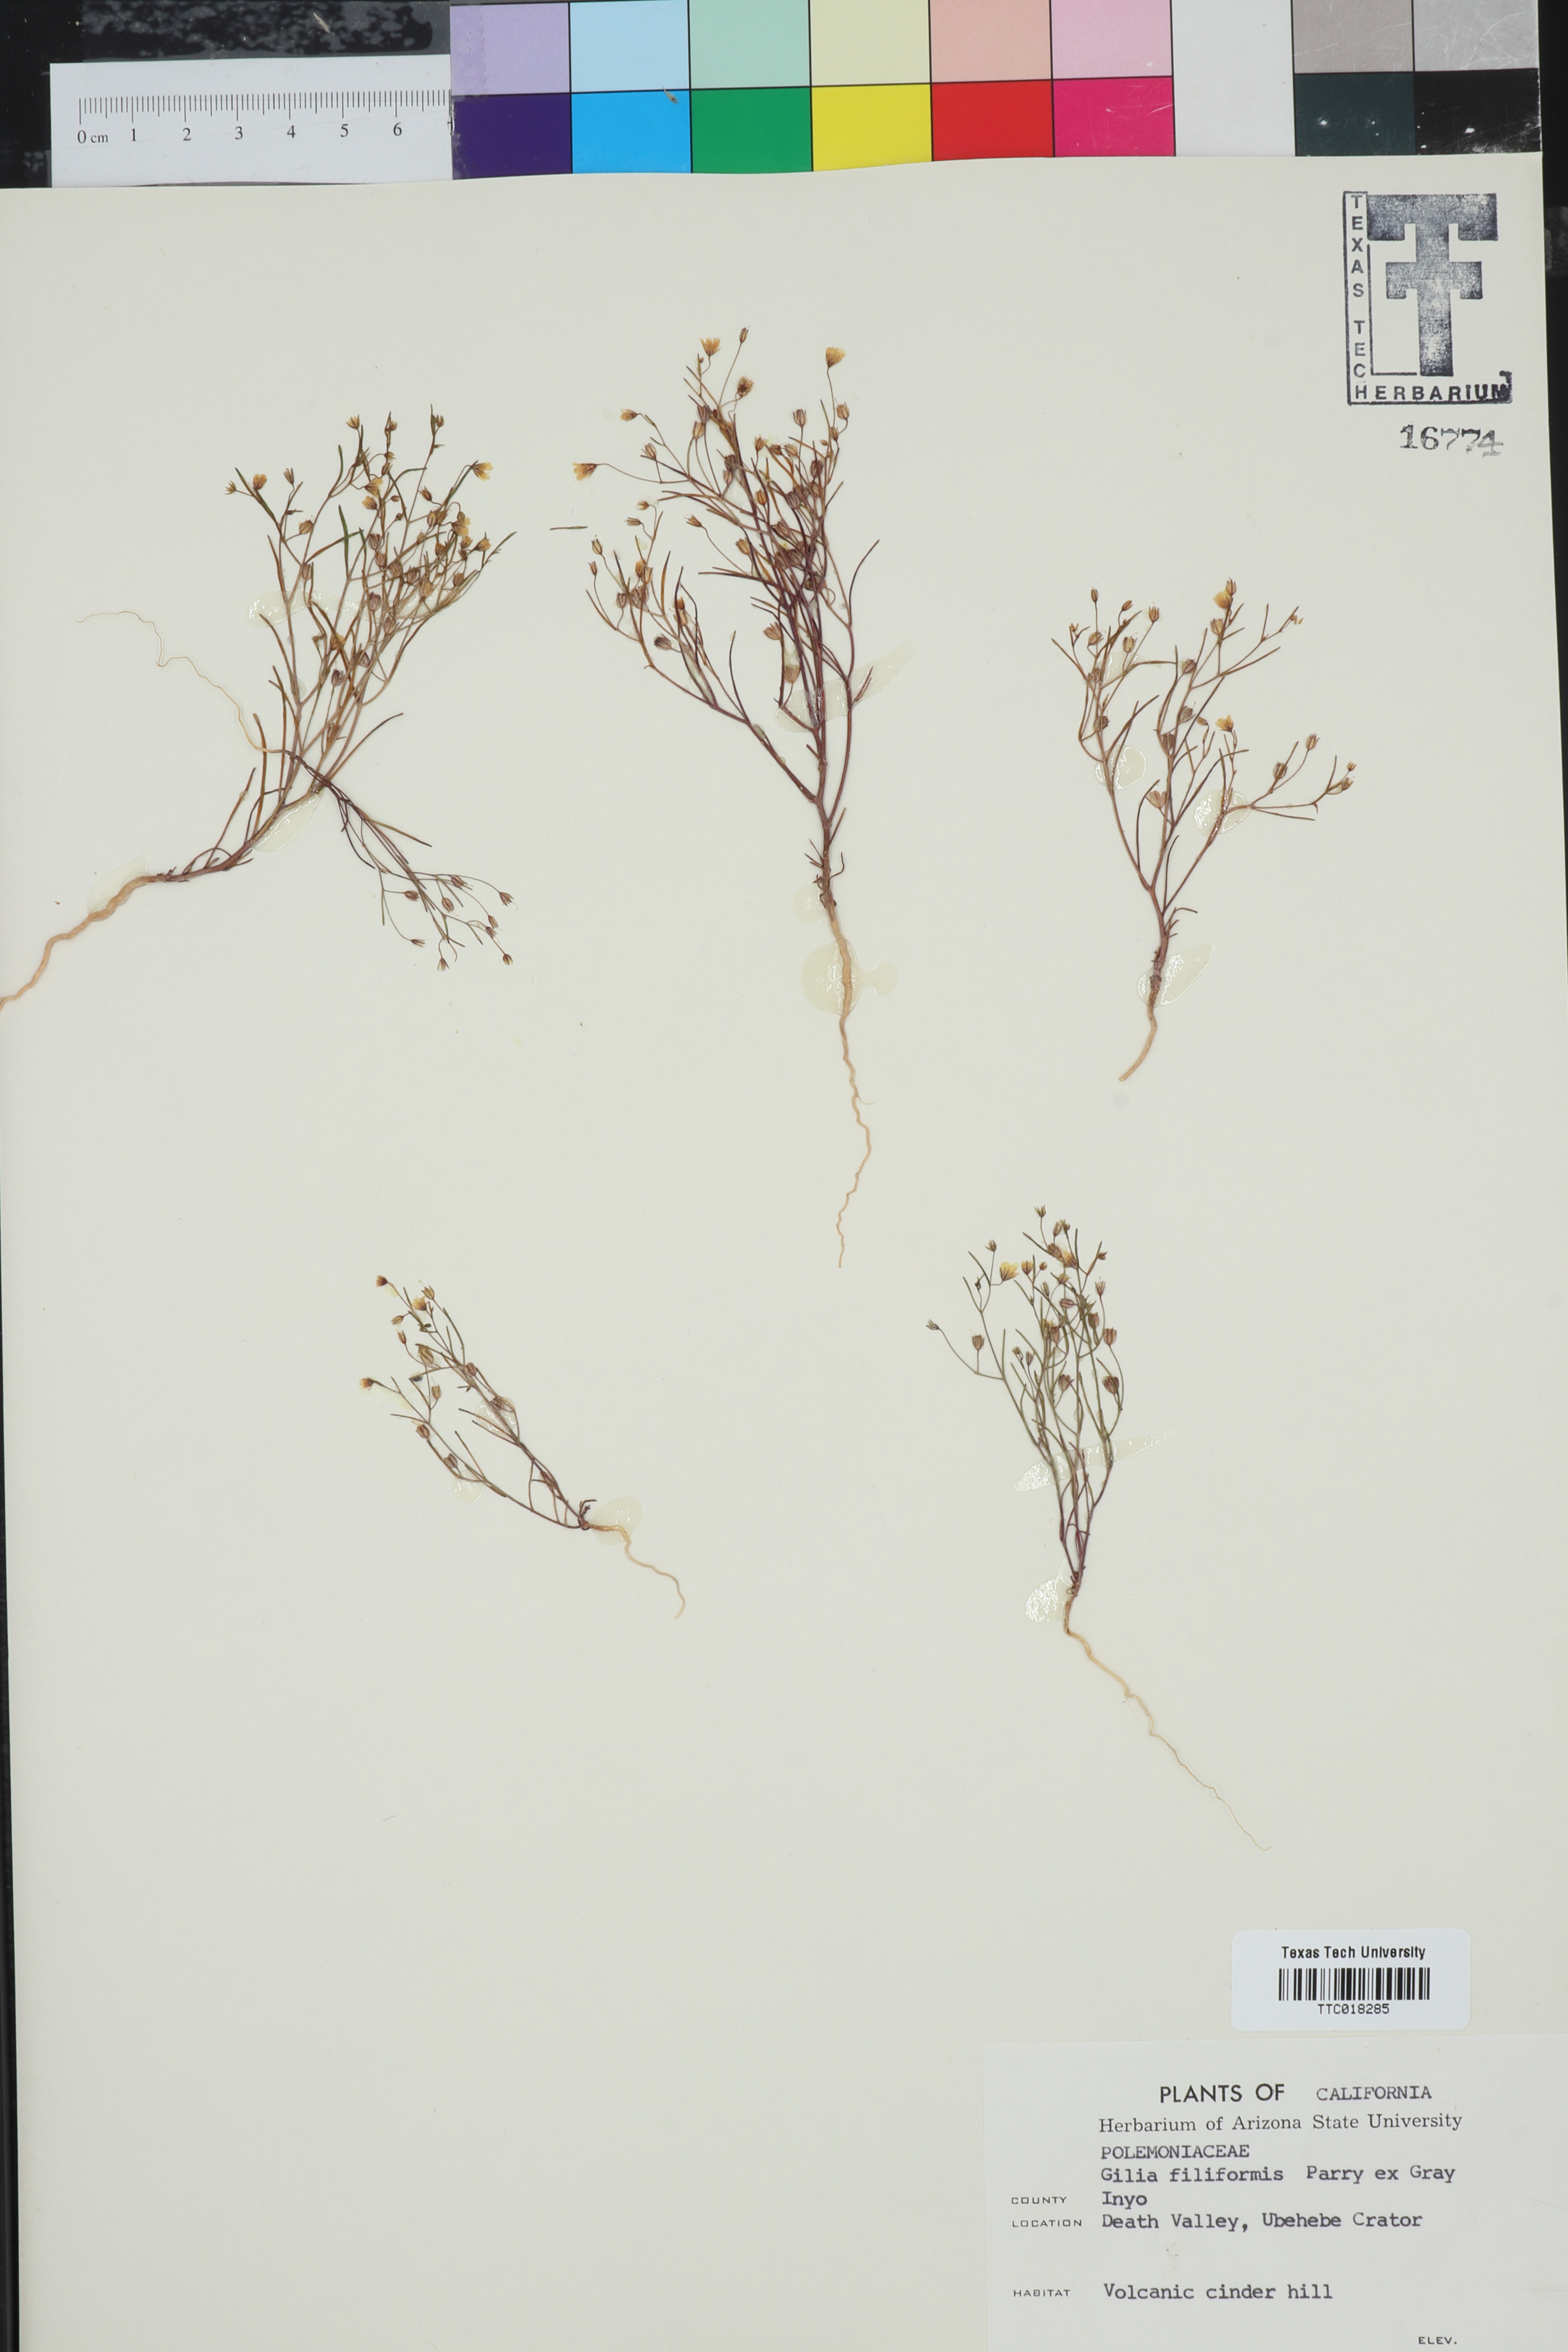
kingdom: Plantae
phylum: Tracheophyta
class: Magnoliopsida
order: Ericales
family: Polemoniaceae
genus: Linanthus
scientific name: Linanthus filiformis
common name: Yellow gilia
